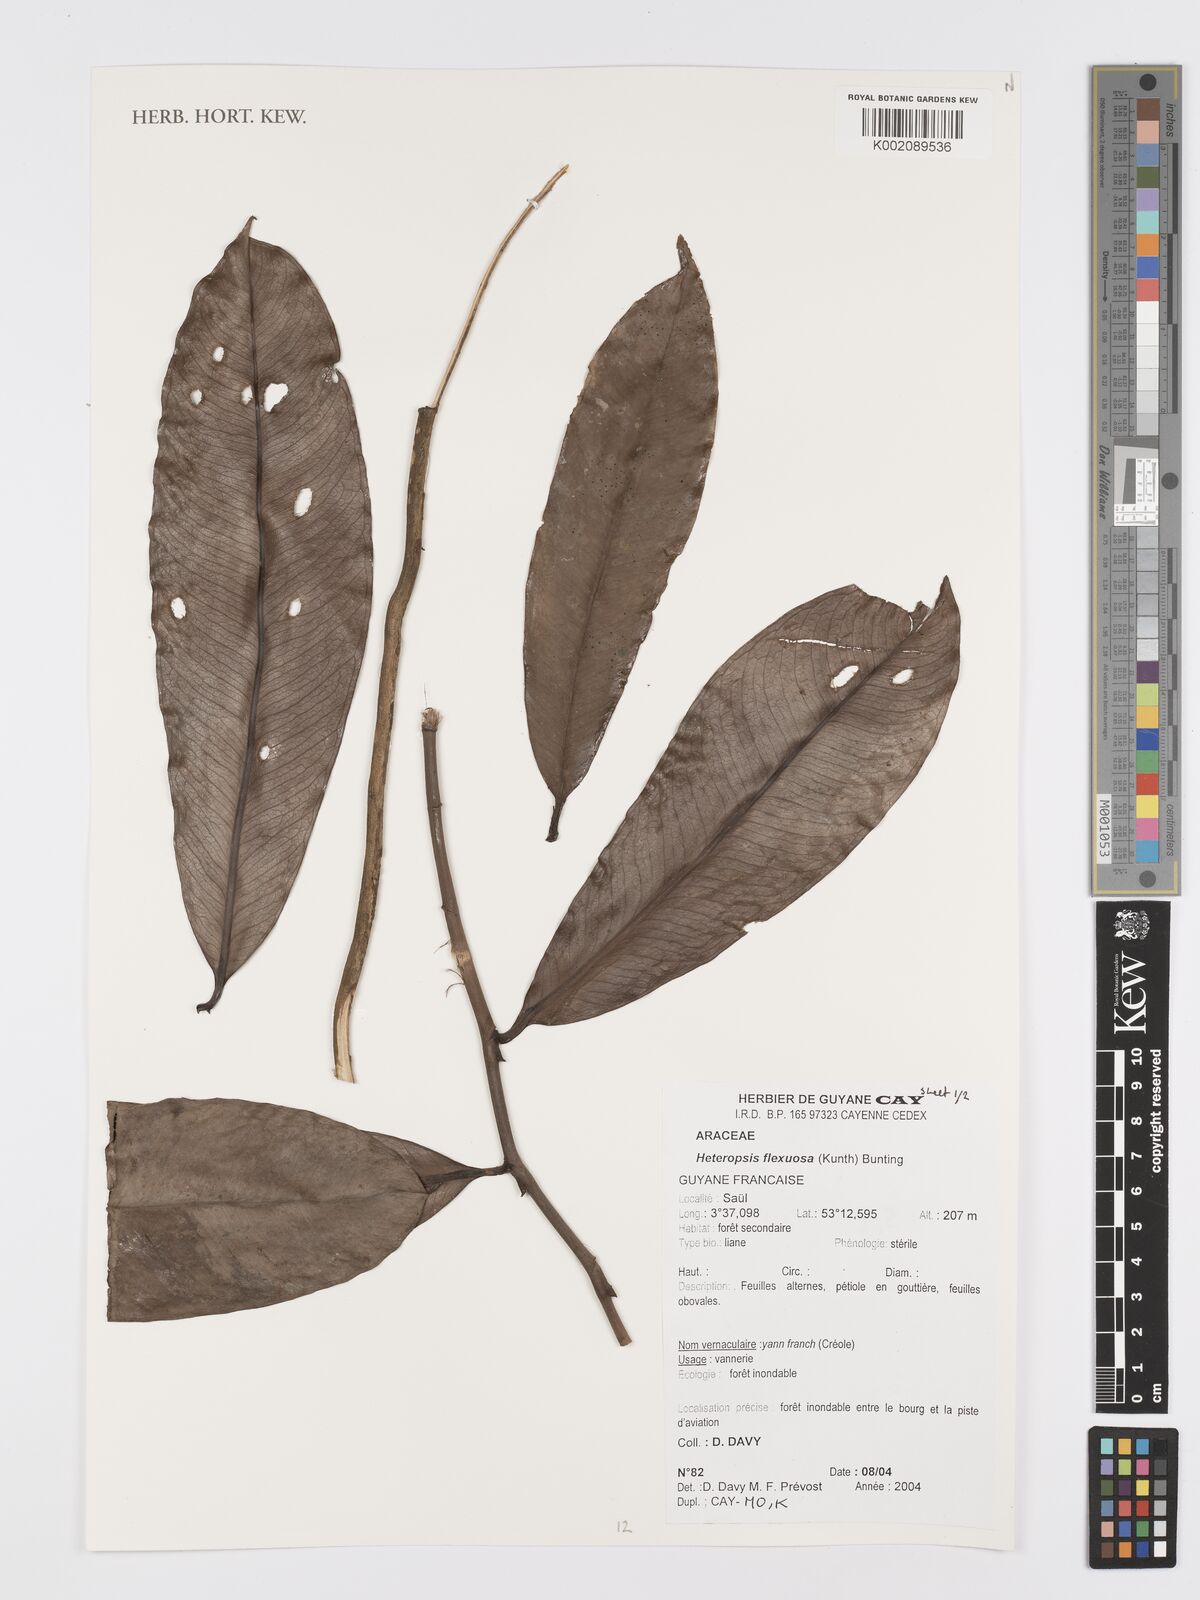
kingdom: Plantae
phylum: Tracheophyta
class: Liliopsida
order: Alismatales
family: Araceae
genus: Heteropsis
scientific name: Heteropsis flexuosa
